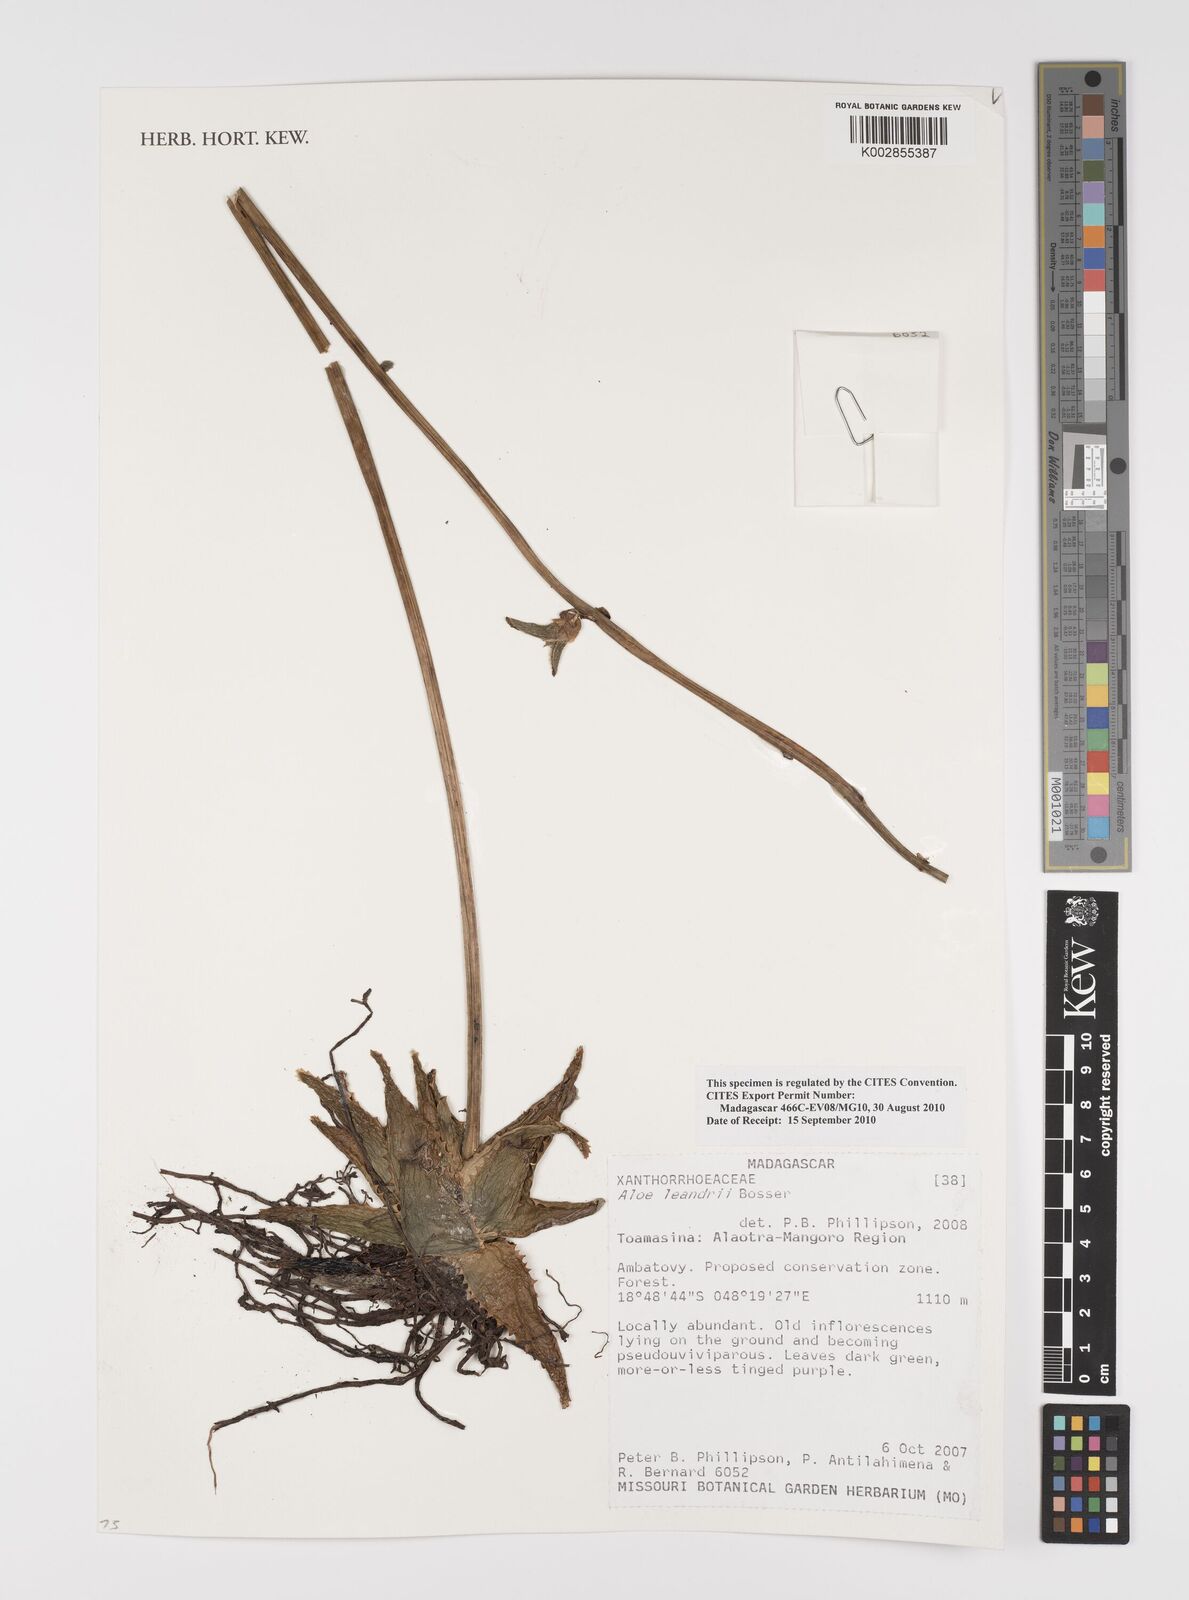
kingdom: Plantae
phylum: Tracheophyta
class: Liliopsida
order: Asparagales
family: Asphodelaceae
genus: Aloe
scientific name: Aloe leandrii
